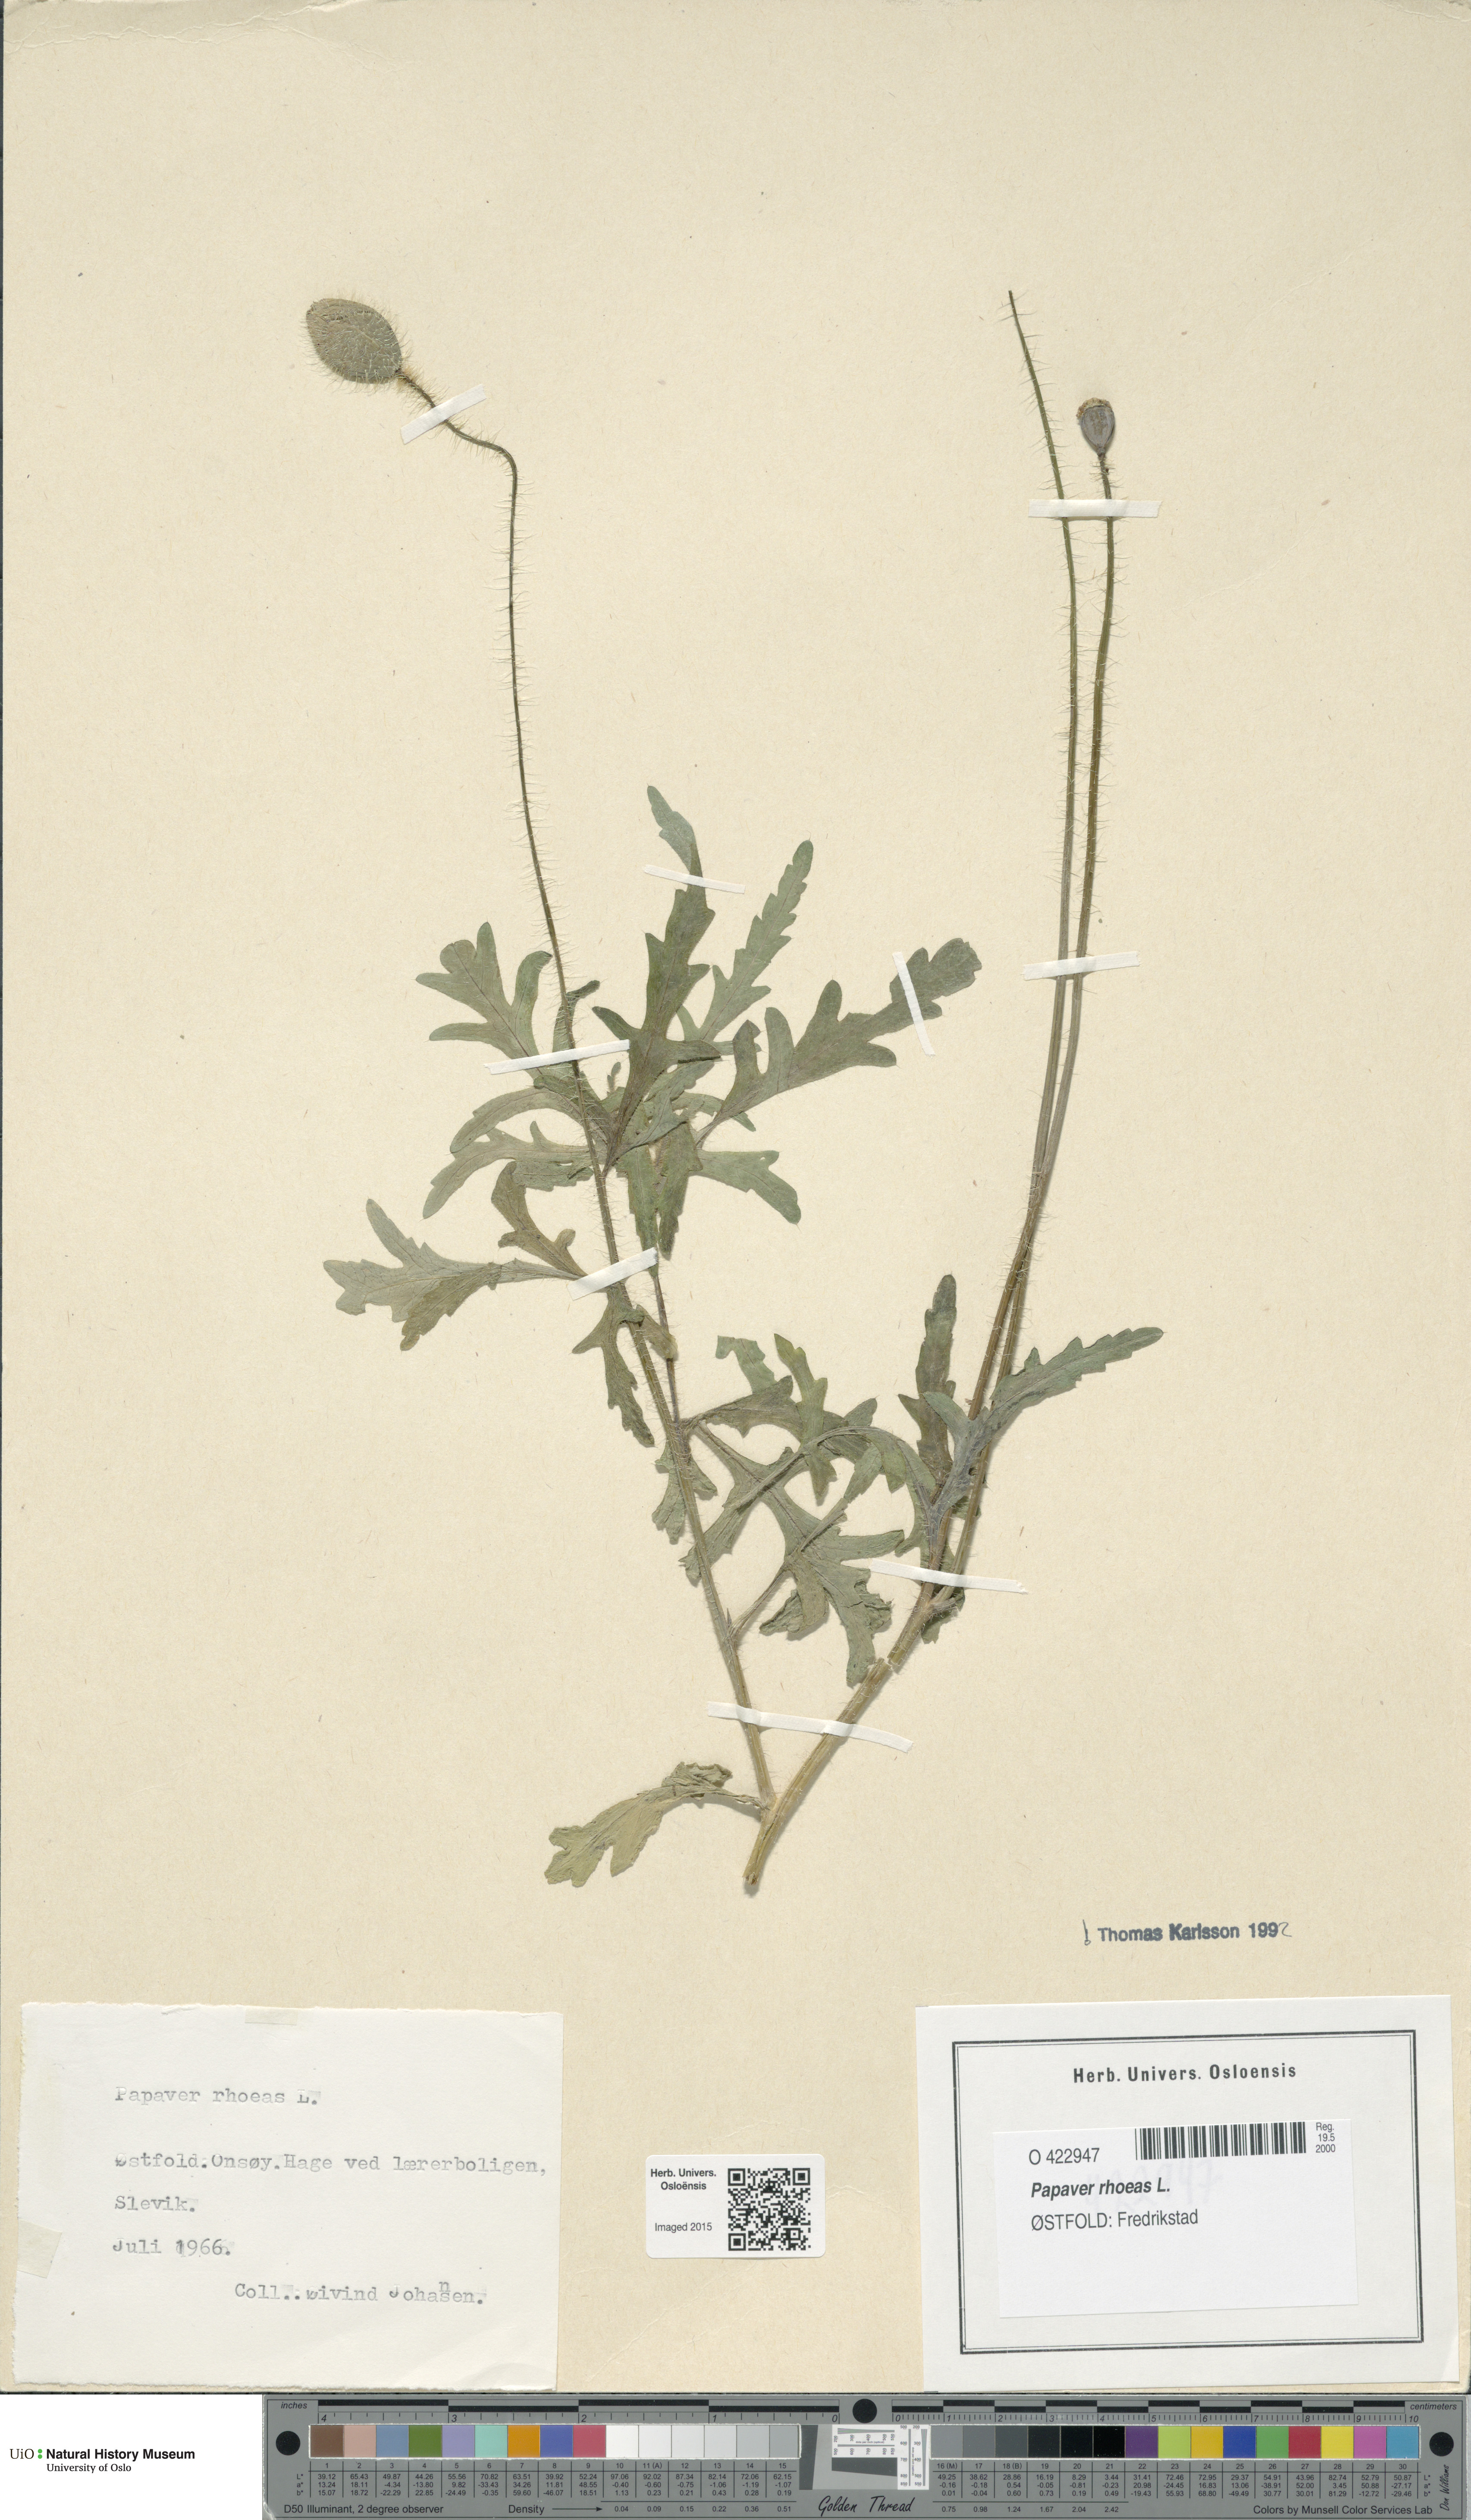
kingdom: Plantae
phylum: Tracheophyta
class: Magnoliopsida
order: Ranunculales
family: Papaveraceae
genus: Papaver
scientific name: Papaver rhoeas
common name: Corn poppy
